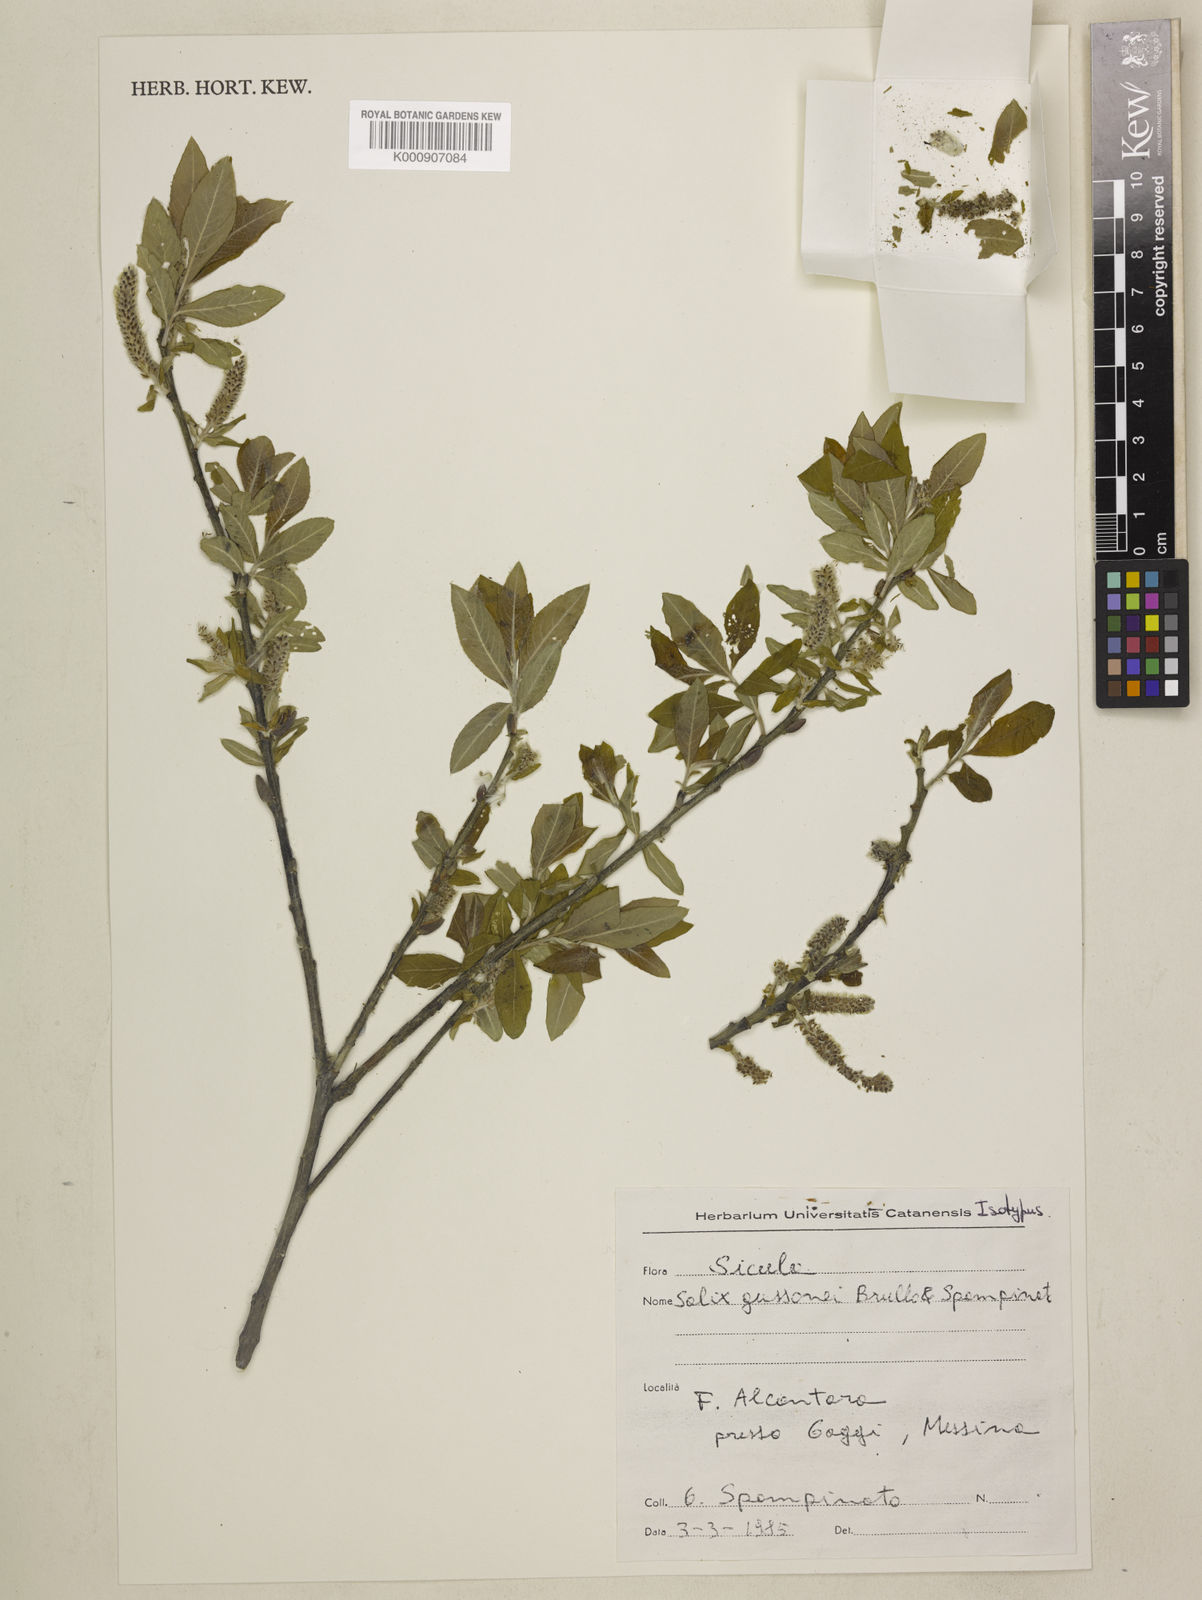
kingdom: Plantae
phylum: Tracheophyta
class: Magnoliopsida
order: Malpighiales
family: Salicaceae
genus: Salix
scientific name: Salix gussonei
